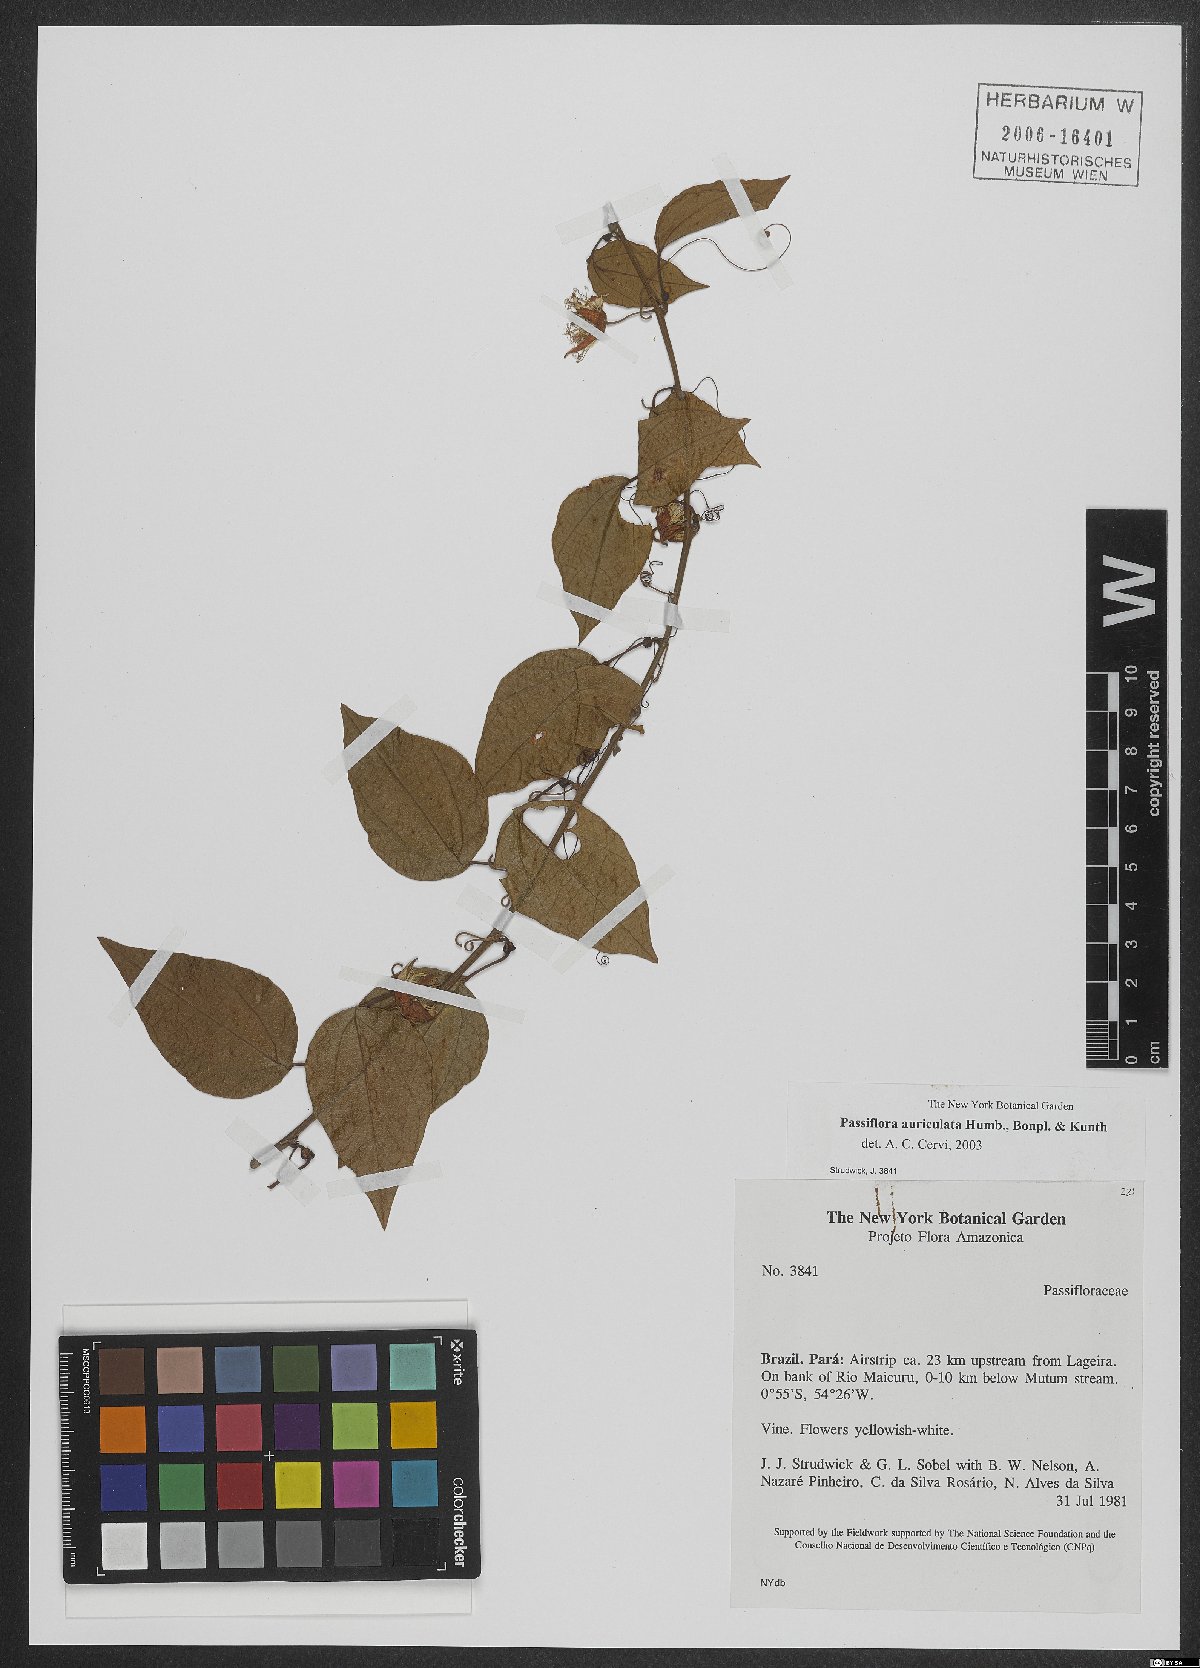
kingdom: Plantae
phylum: Tracheophyta
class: Magnoliopsida
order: Malpighiales
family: Passifloraceae
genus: Passiflora
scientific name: Passiflora auriculata
